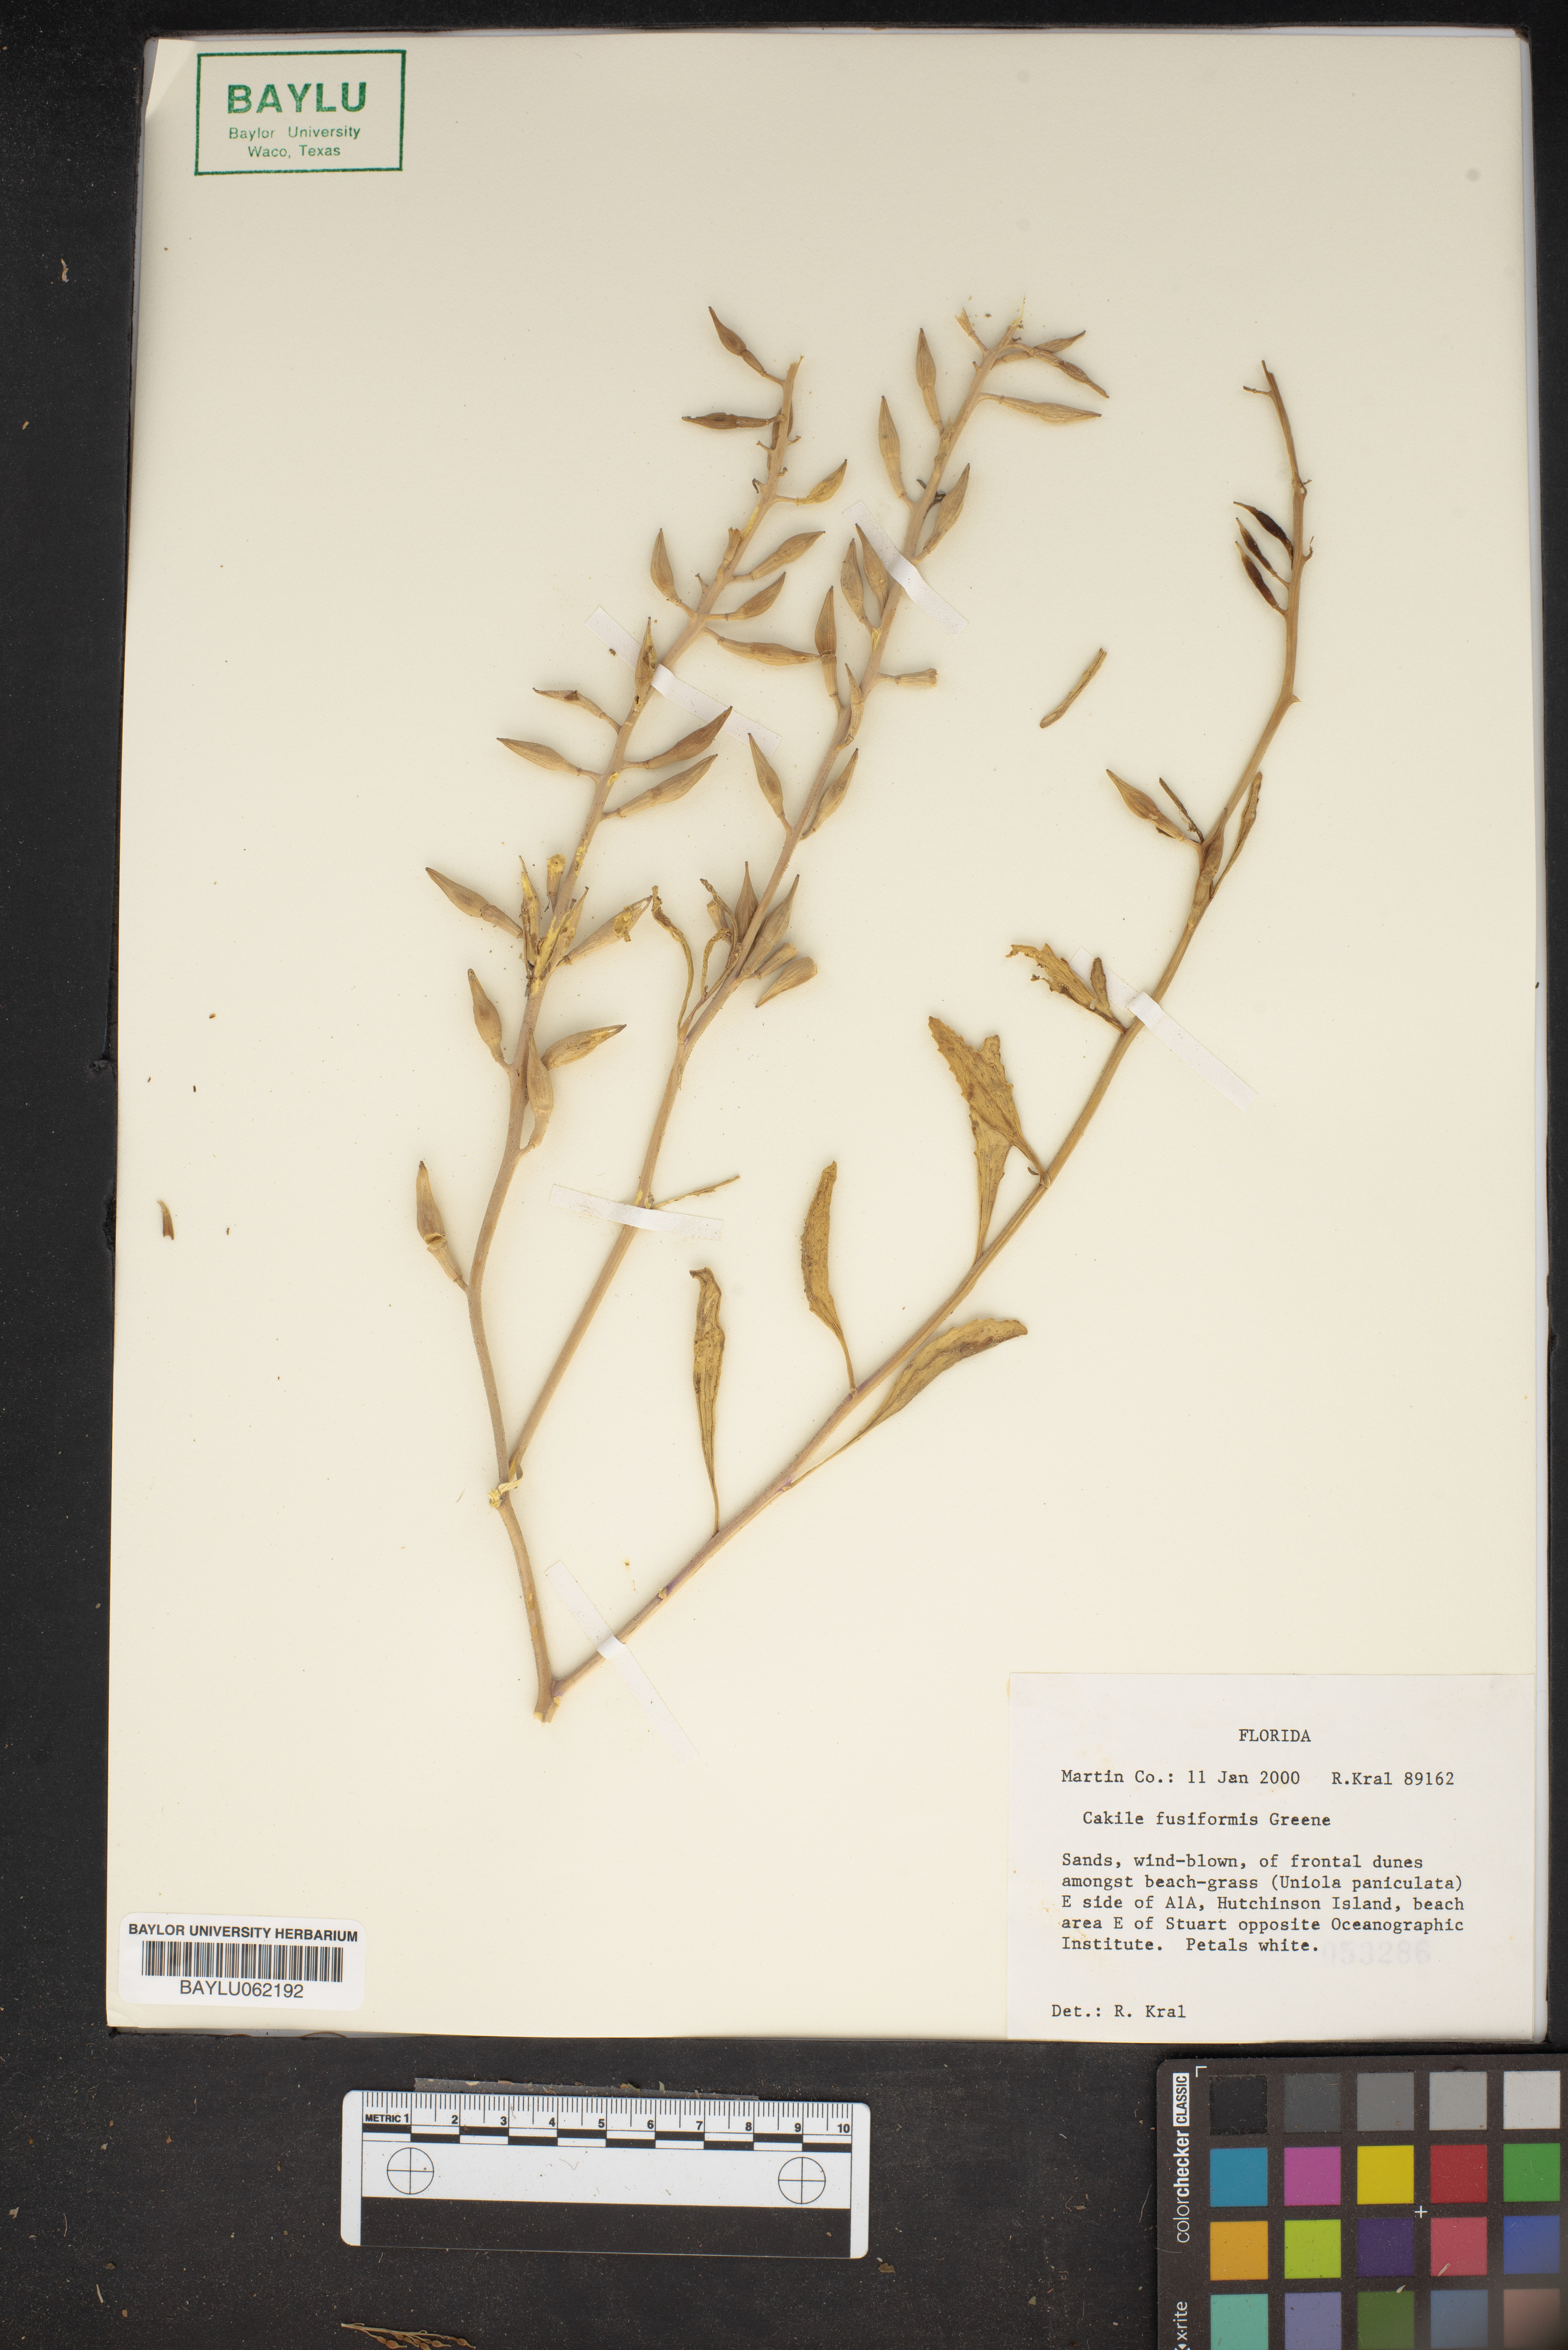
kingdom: Plantae
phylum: Tracheophyta
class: Magnoliopsida
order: Brassicales
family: Brassicaceae
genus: Cakile
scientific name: Cakile lanceolata
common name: Sea rocket
